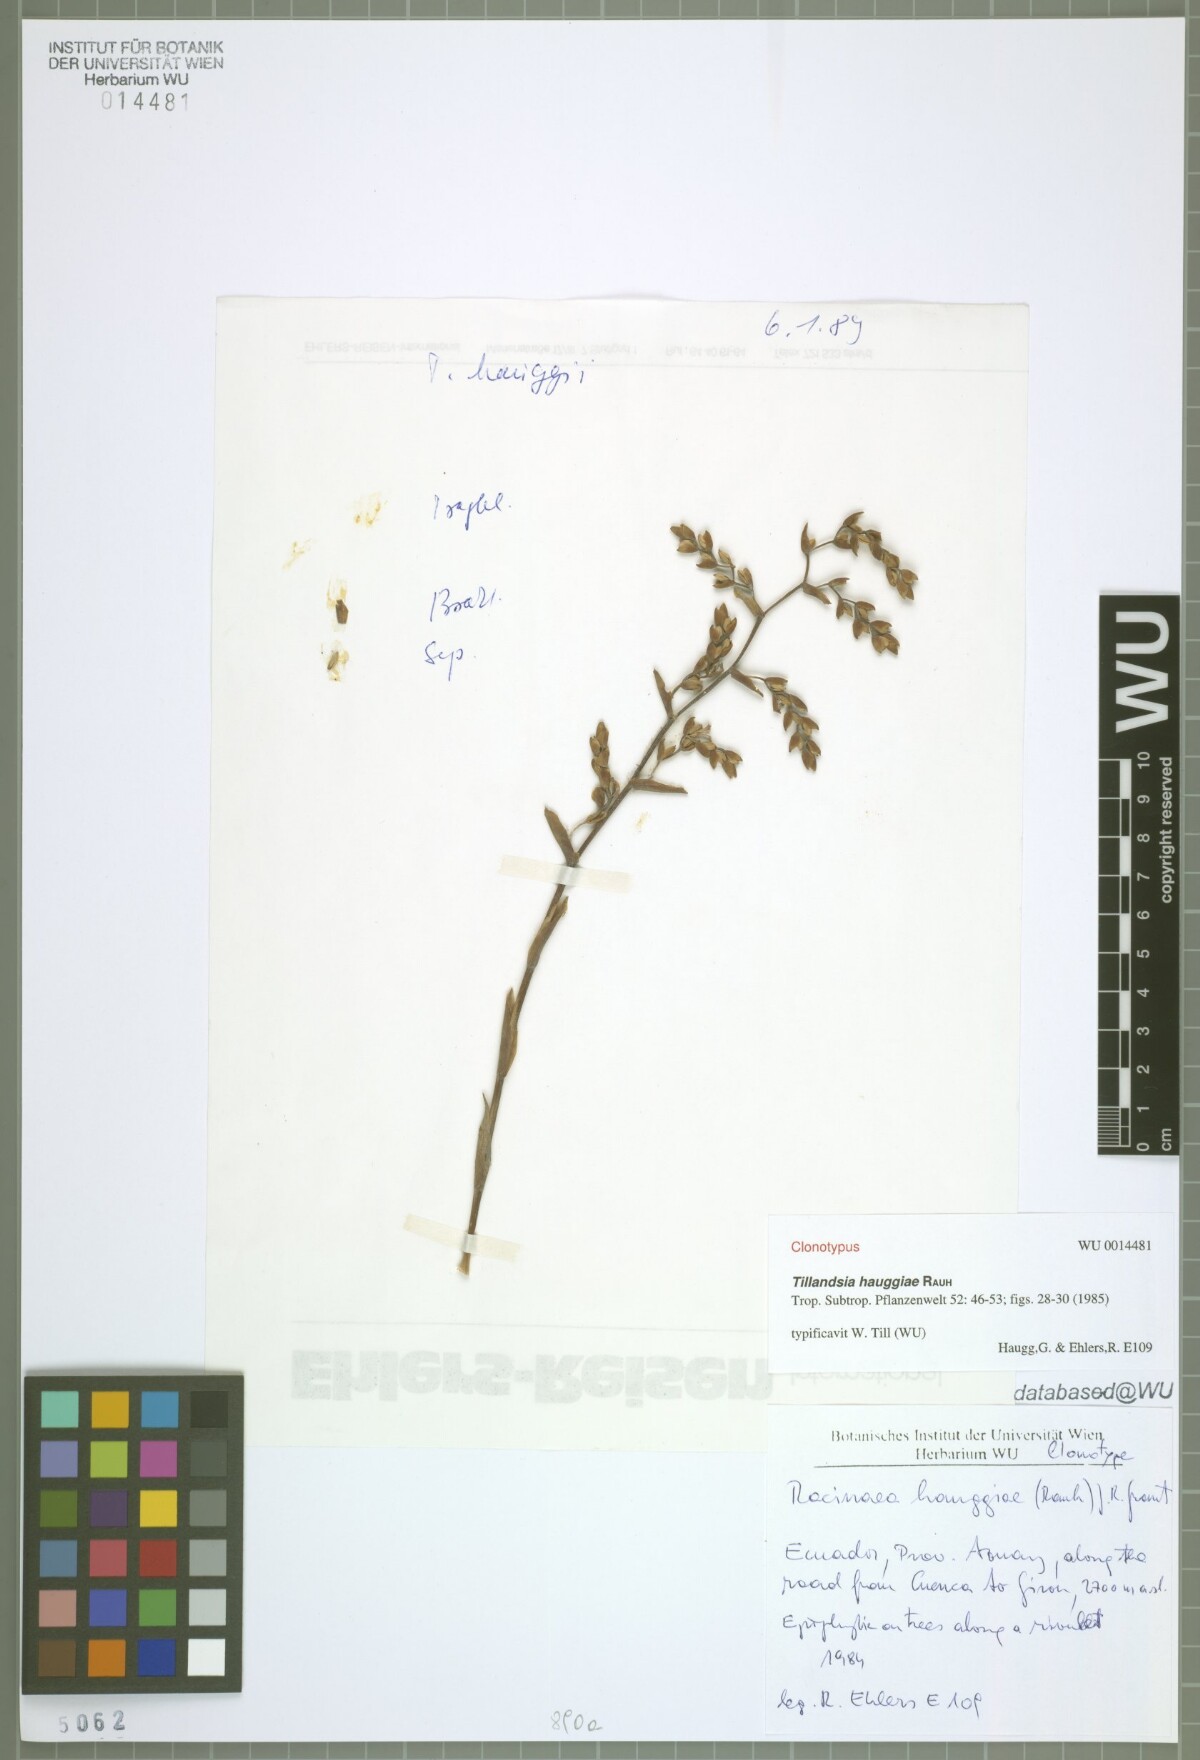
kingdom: Plantae
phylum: Tracheophyta
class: Liliopsida
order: Poales
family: Bromeliaceae
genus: Racinaea
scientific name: Racinaea hauggiae
